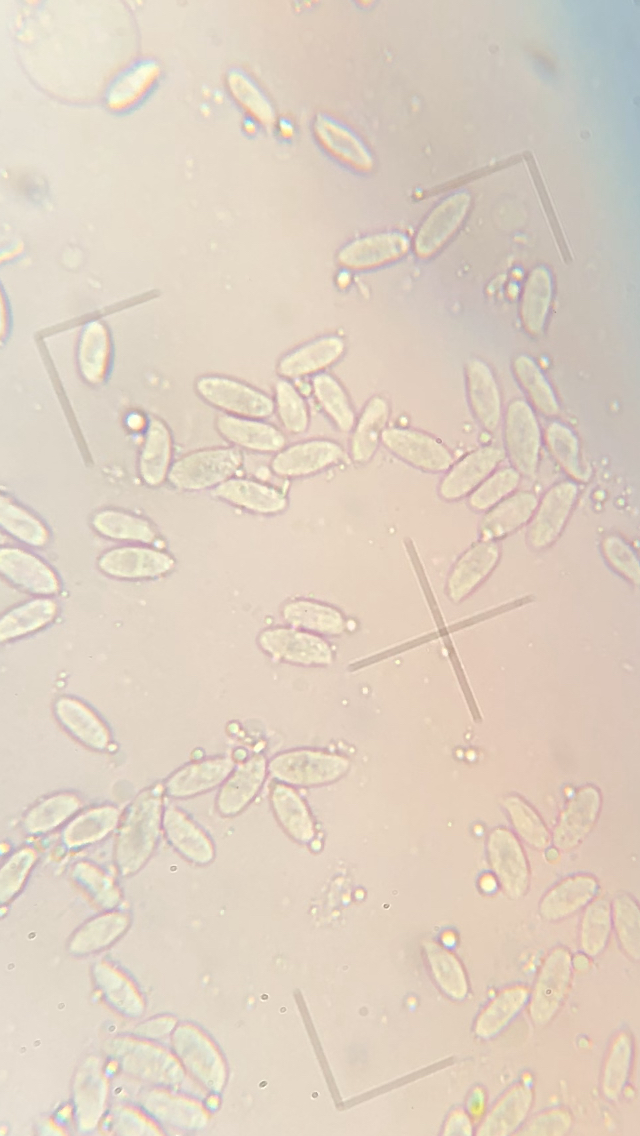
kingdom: Fungi
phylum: Basidiomycota
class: Agaricomycetes
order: Agaricales
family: Physalacriaceae
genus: Flammulina
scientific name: Flammulina elastica
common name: pile-fløjlsfod
